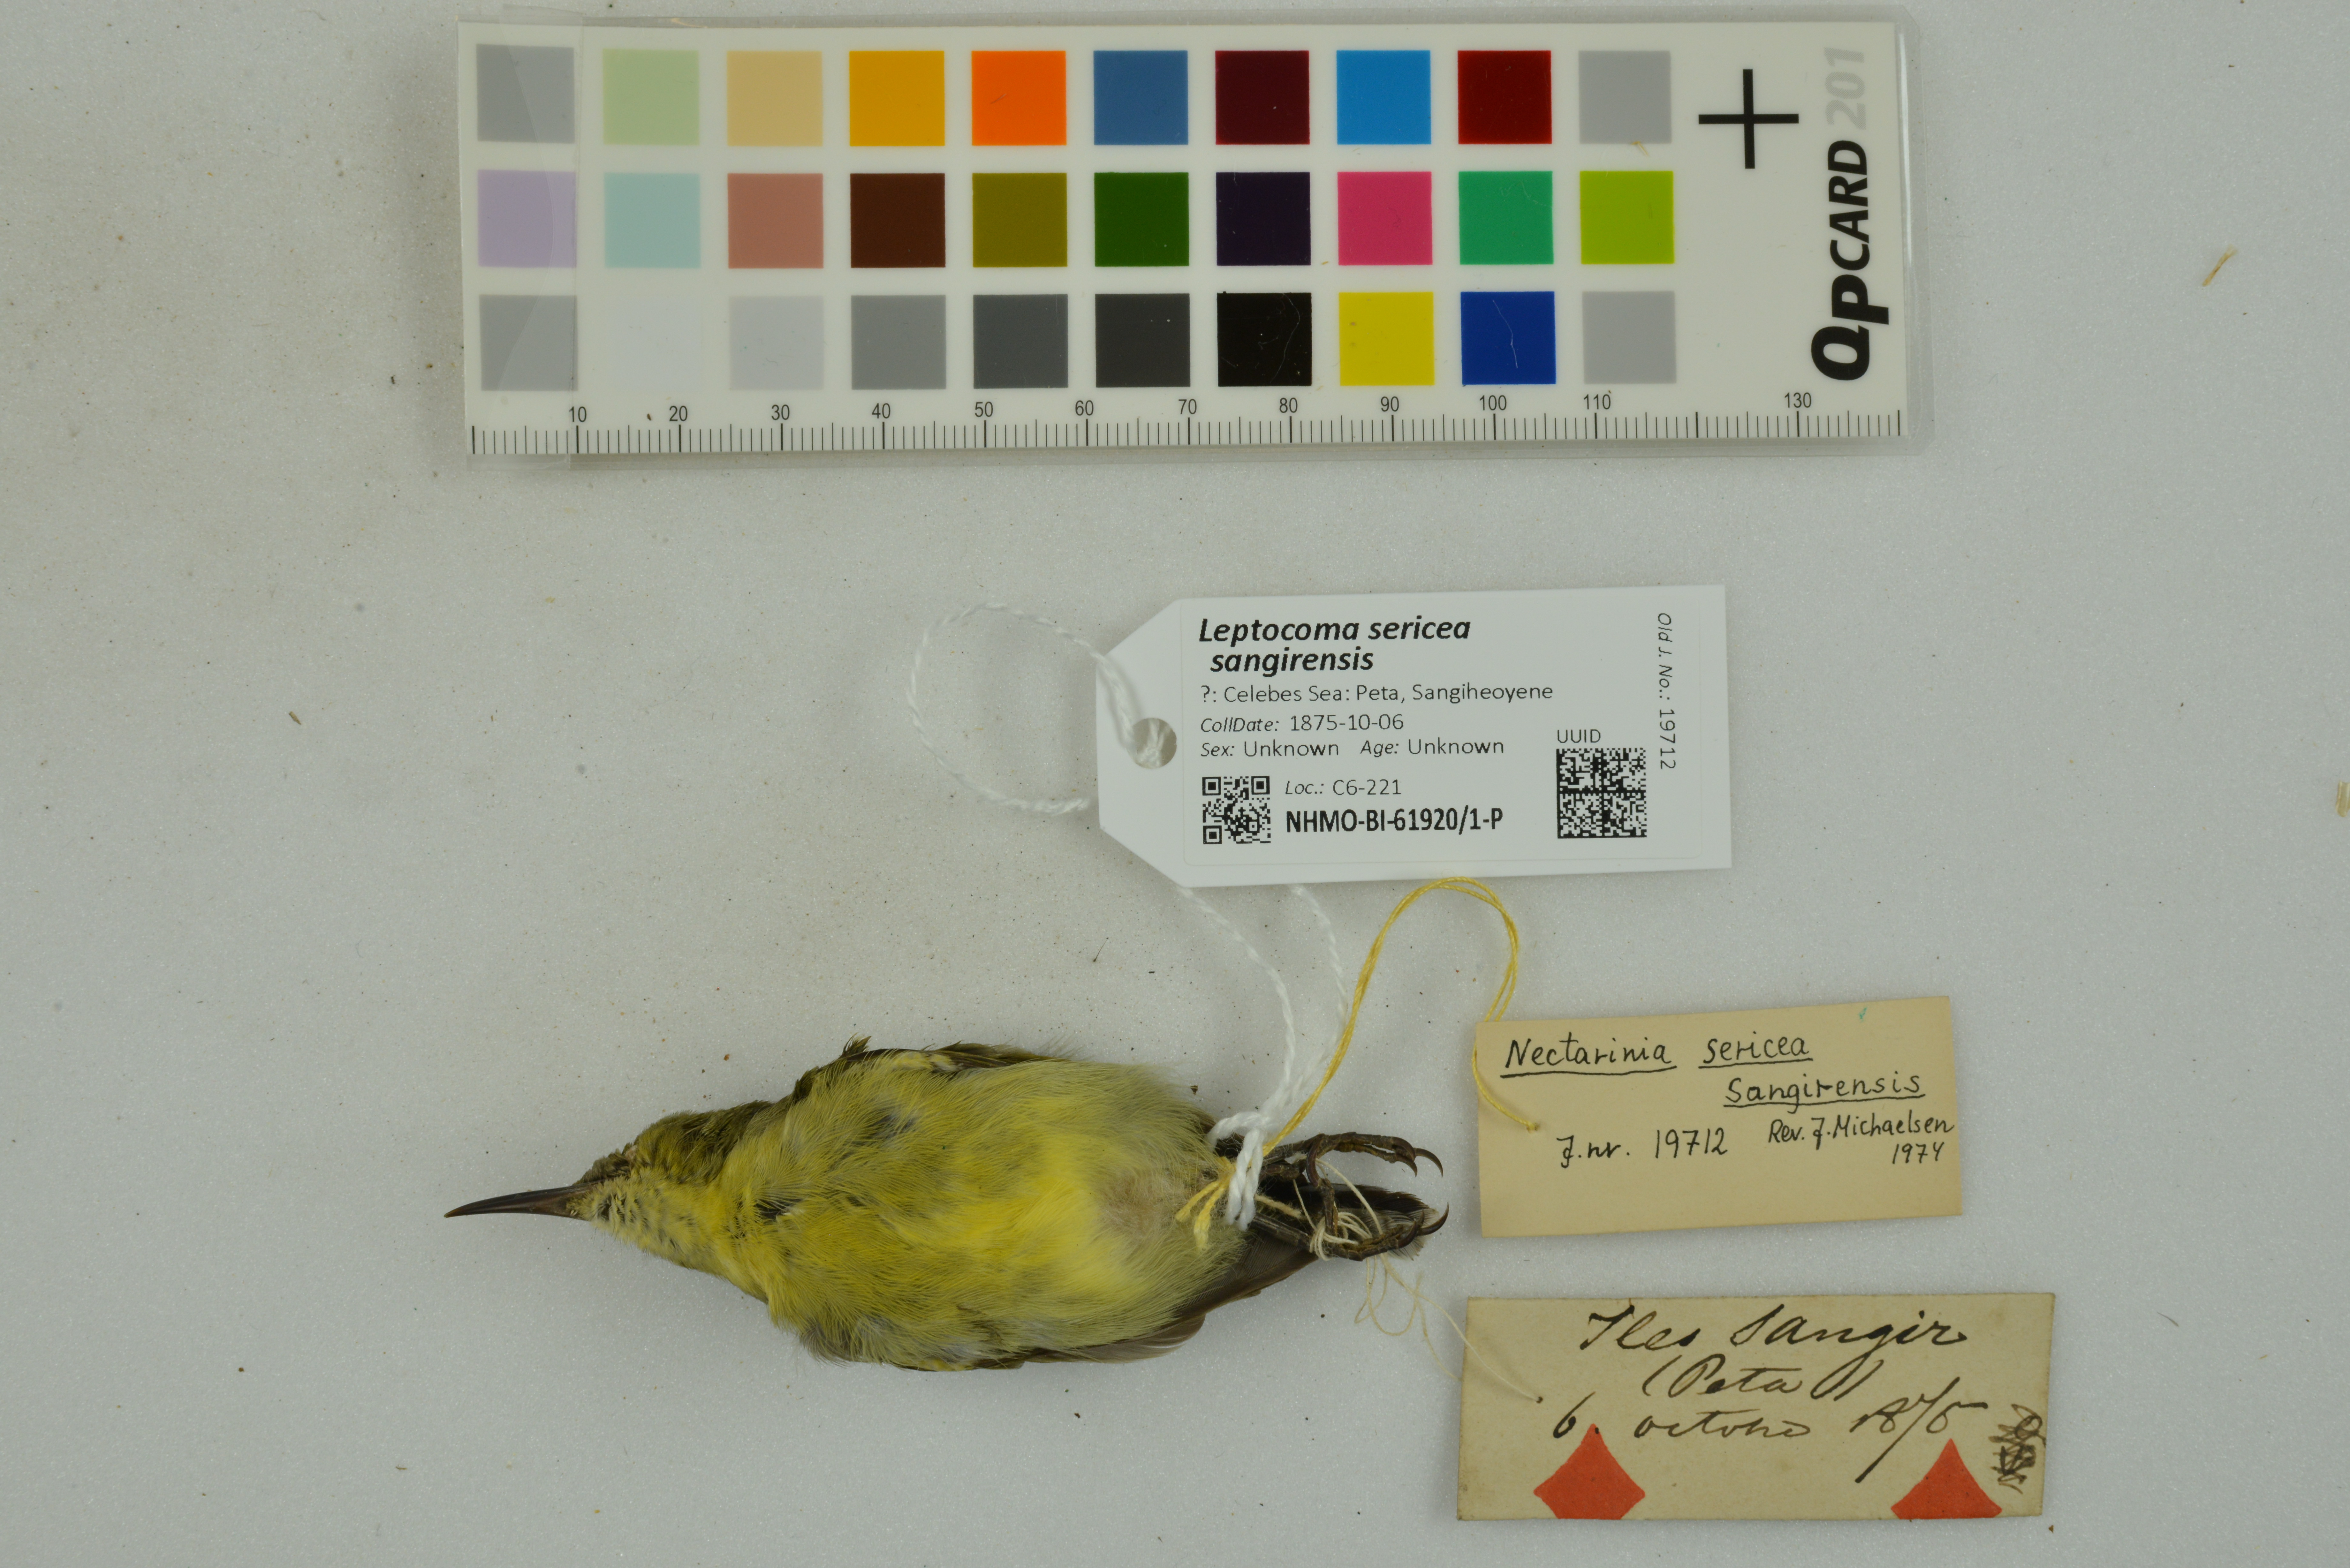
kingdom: Animalia
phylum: Chordata
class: Aves
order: Passeriformes
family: Nectariniidae
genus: Leptocoma
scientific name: Leptocoma sericea
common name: Black sunbird
